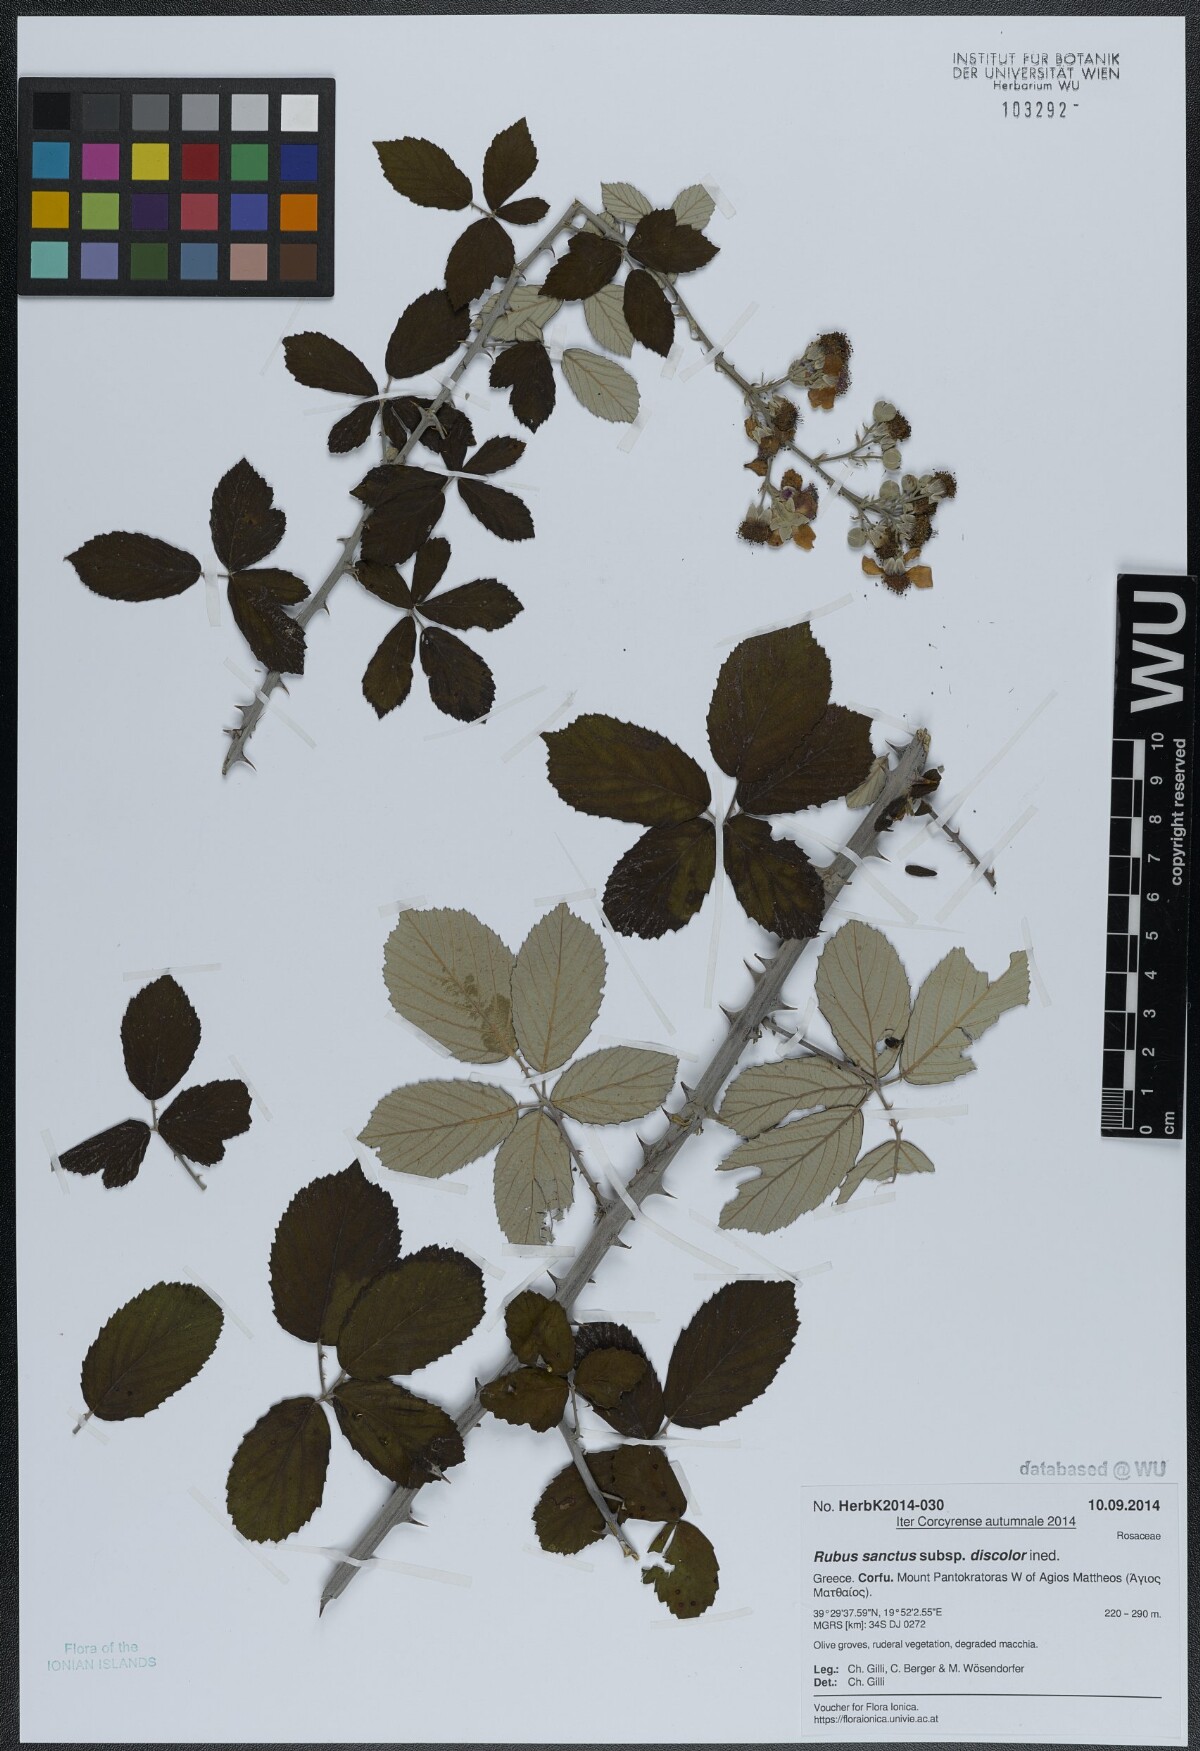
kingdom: Plantae
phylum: Tracheophyta
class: Magnoliopsida
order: Rosales
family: Rosaceae
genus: Rubus
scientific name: Rubus sanctus
